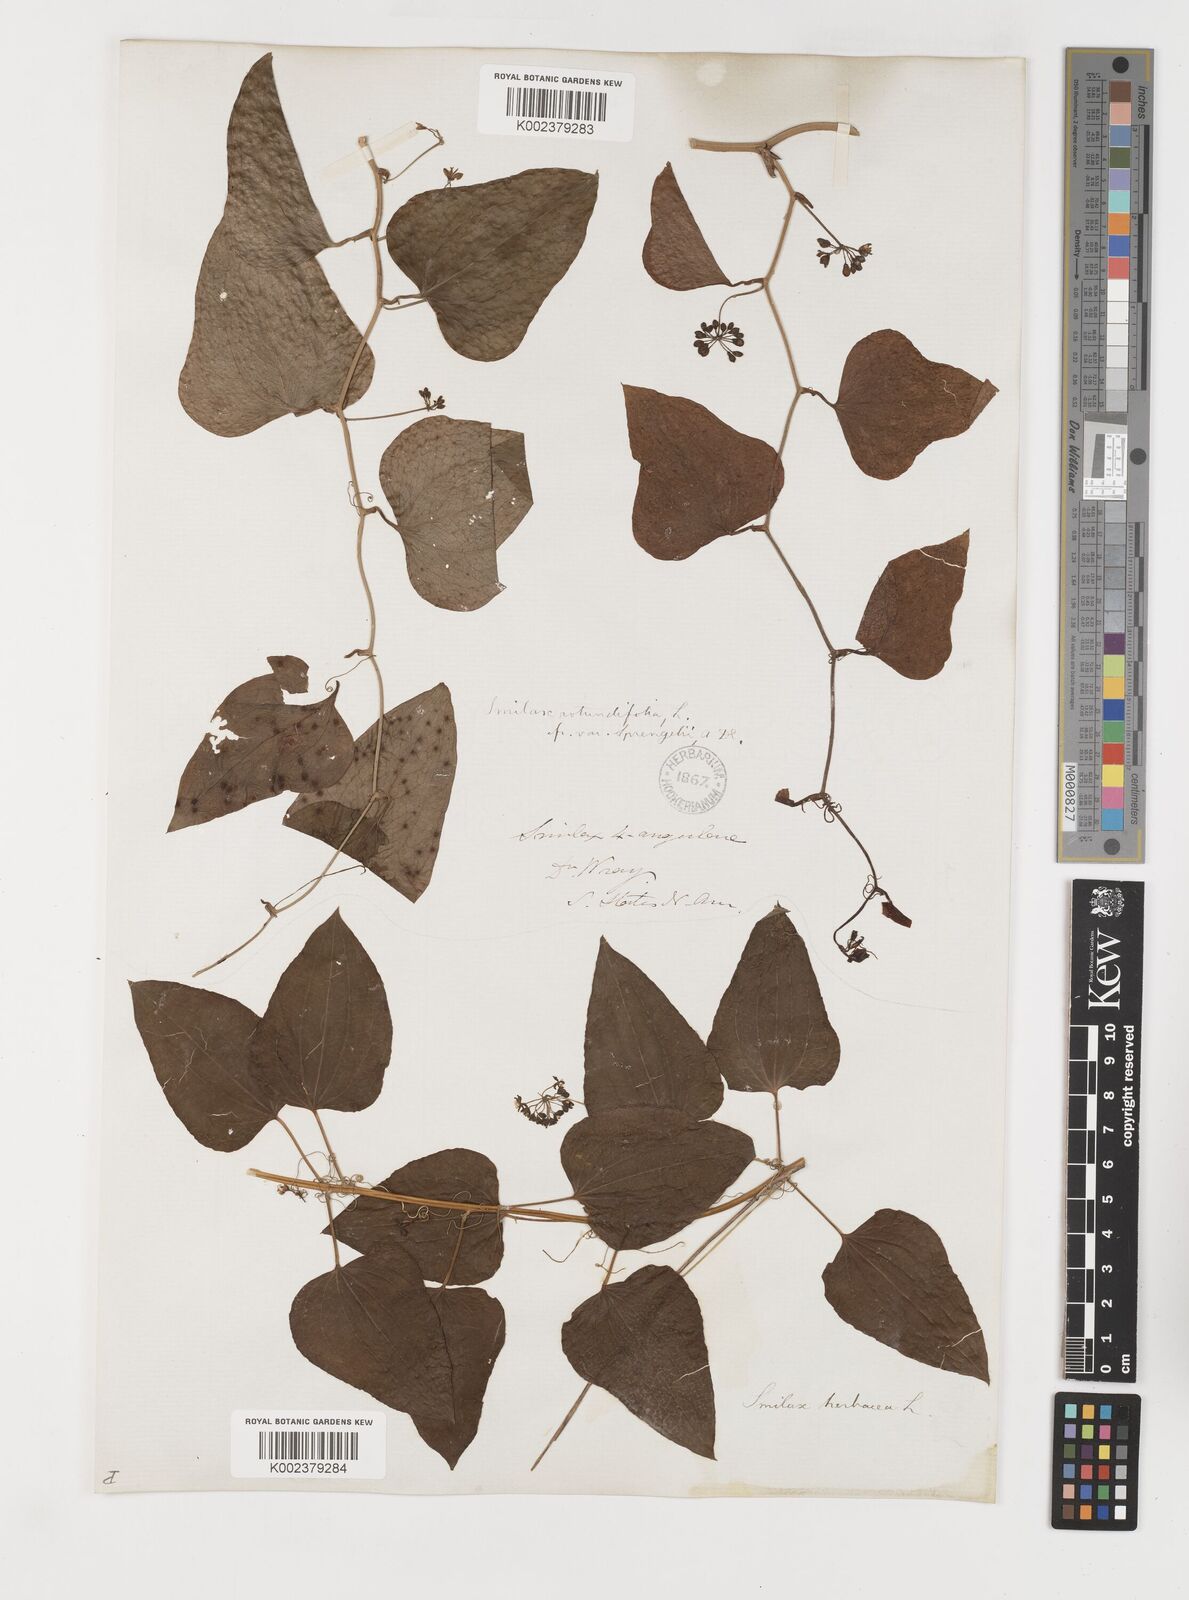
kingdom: Plantae
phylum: Tracheophyta
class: Liliopsida
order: Liliales
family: Smilacaceae
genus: Smilax
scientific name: Smilax rotundifolia
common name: Bullbriar
